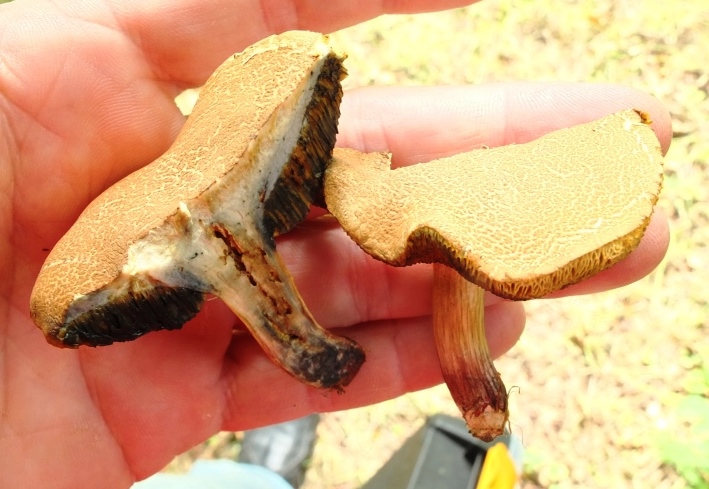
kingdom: Fungi
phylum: Basidiomycota
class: Agaricomycetes
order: Boletales
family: Boletaceae
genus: Xerocomellus
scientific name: Xerocomellus cisalpinus
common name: finsprukken rørhat
